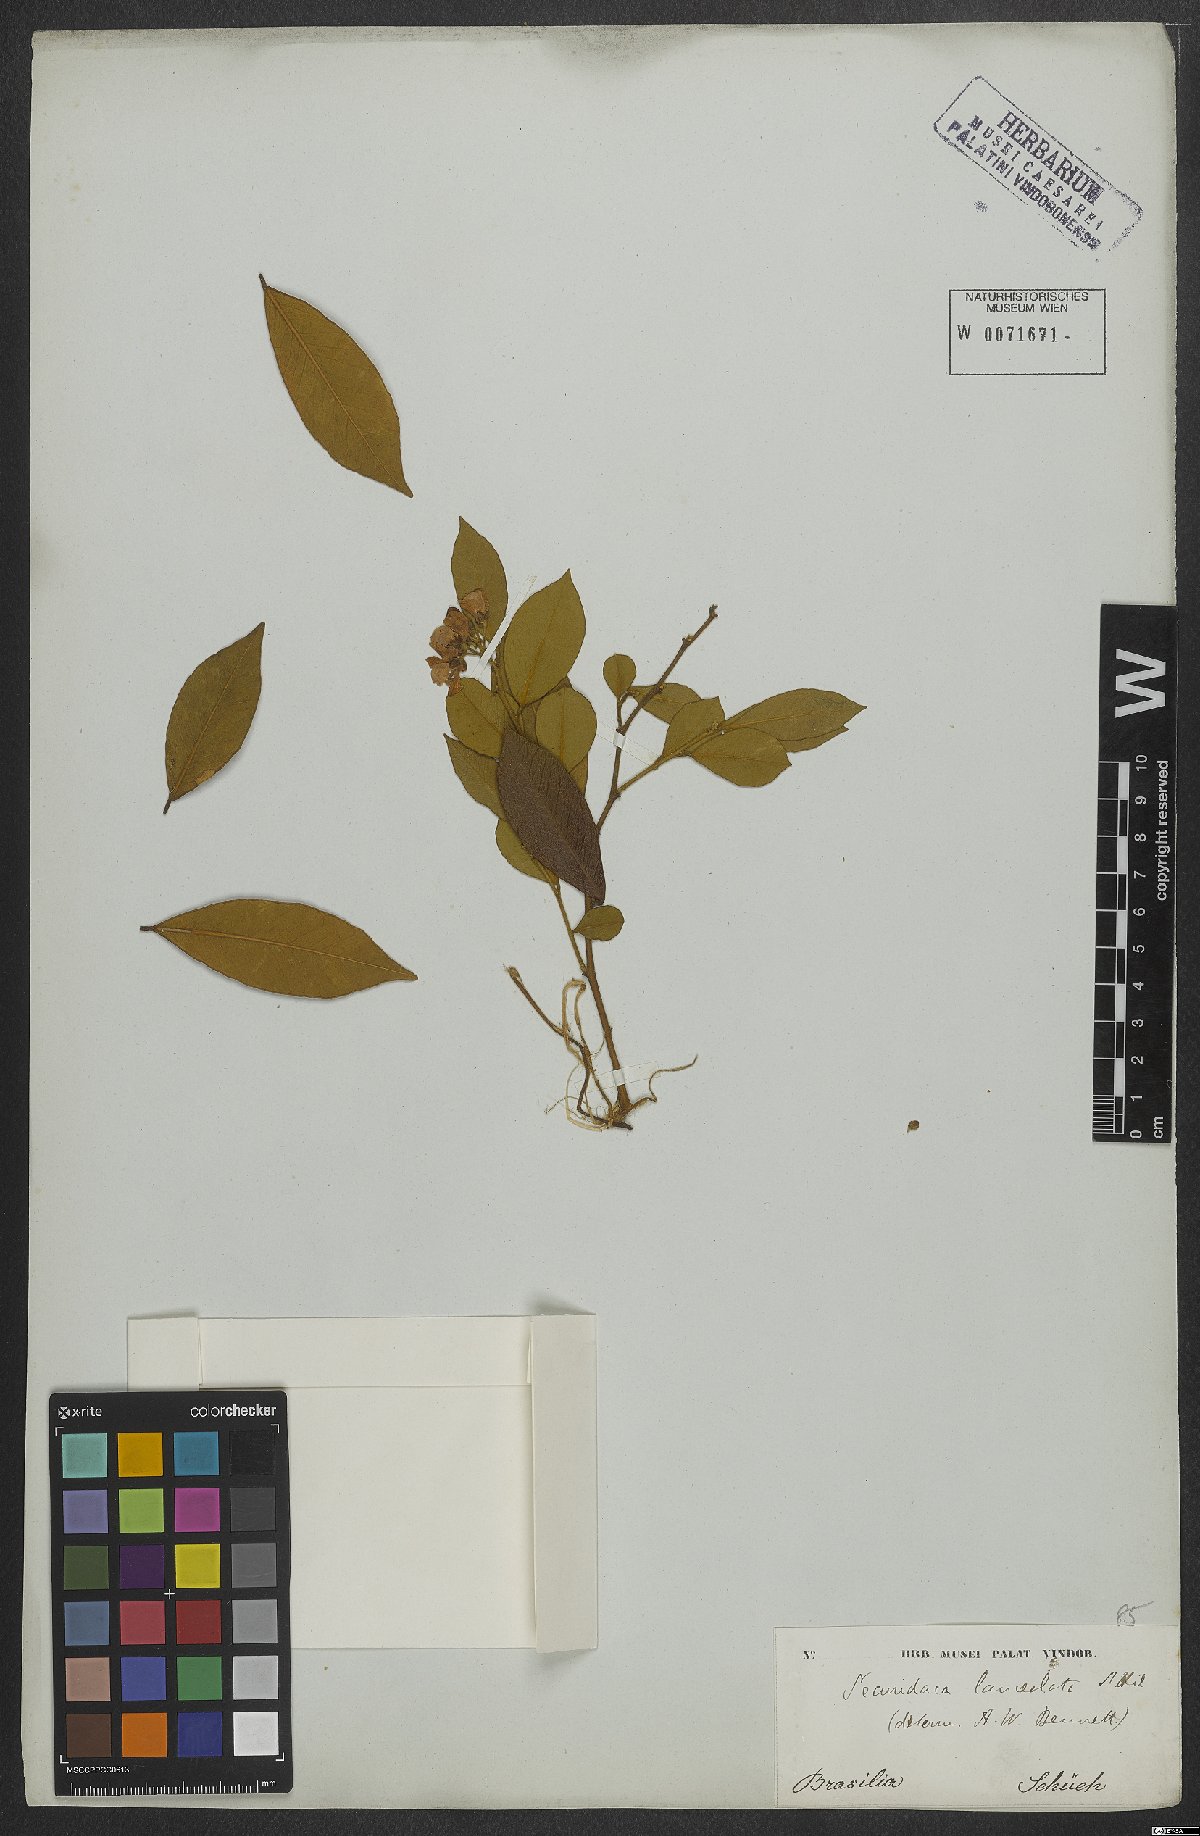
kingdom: Plantae
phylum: Tracheophyta
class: Magnoliopsida
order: Fabales
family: Polygalaceae
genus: Securidaca
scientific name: Securidaca lanceolata
